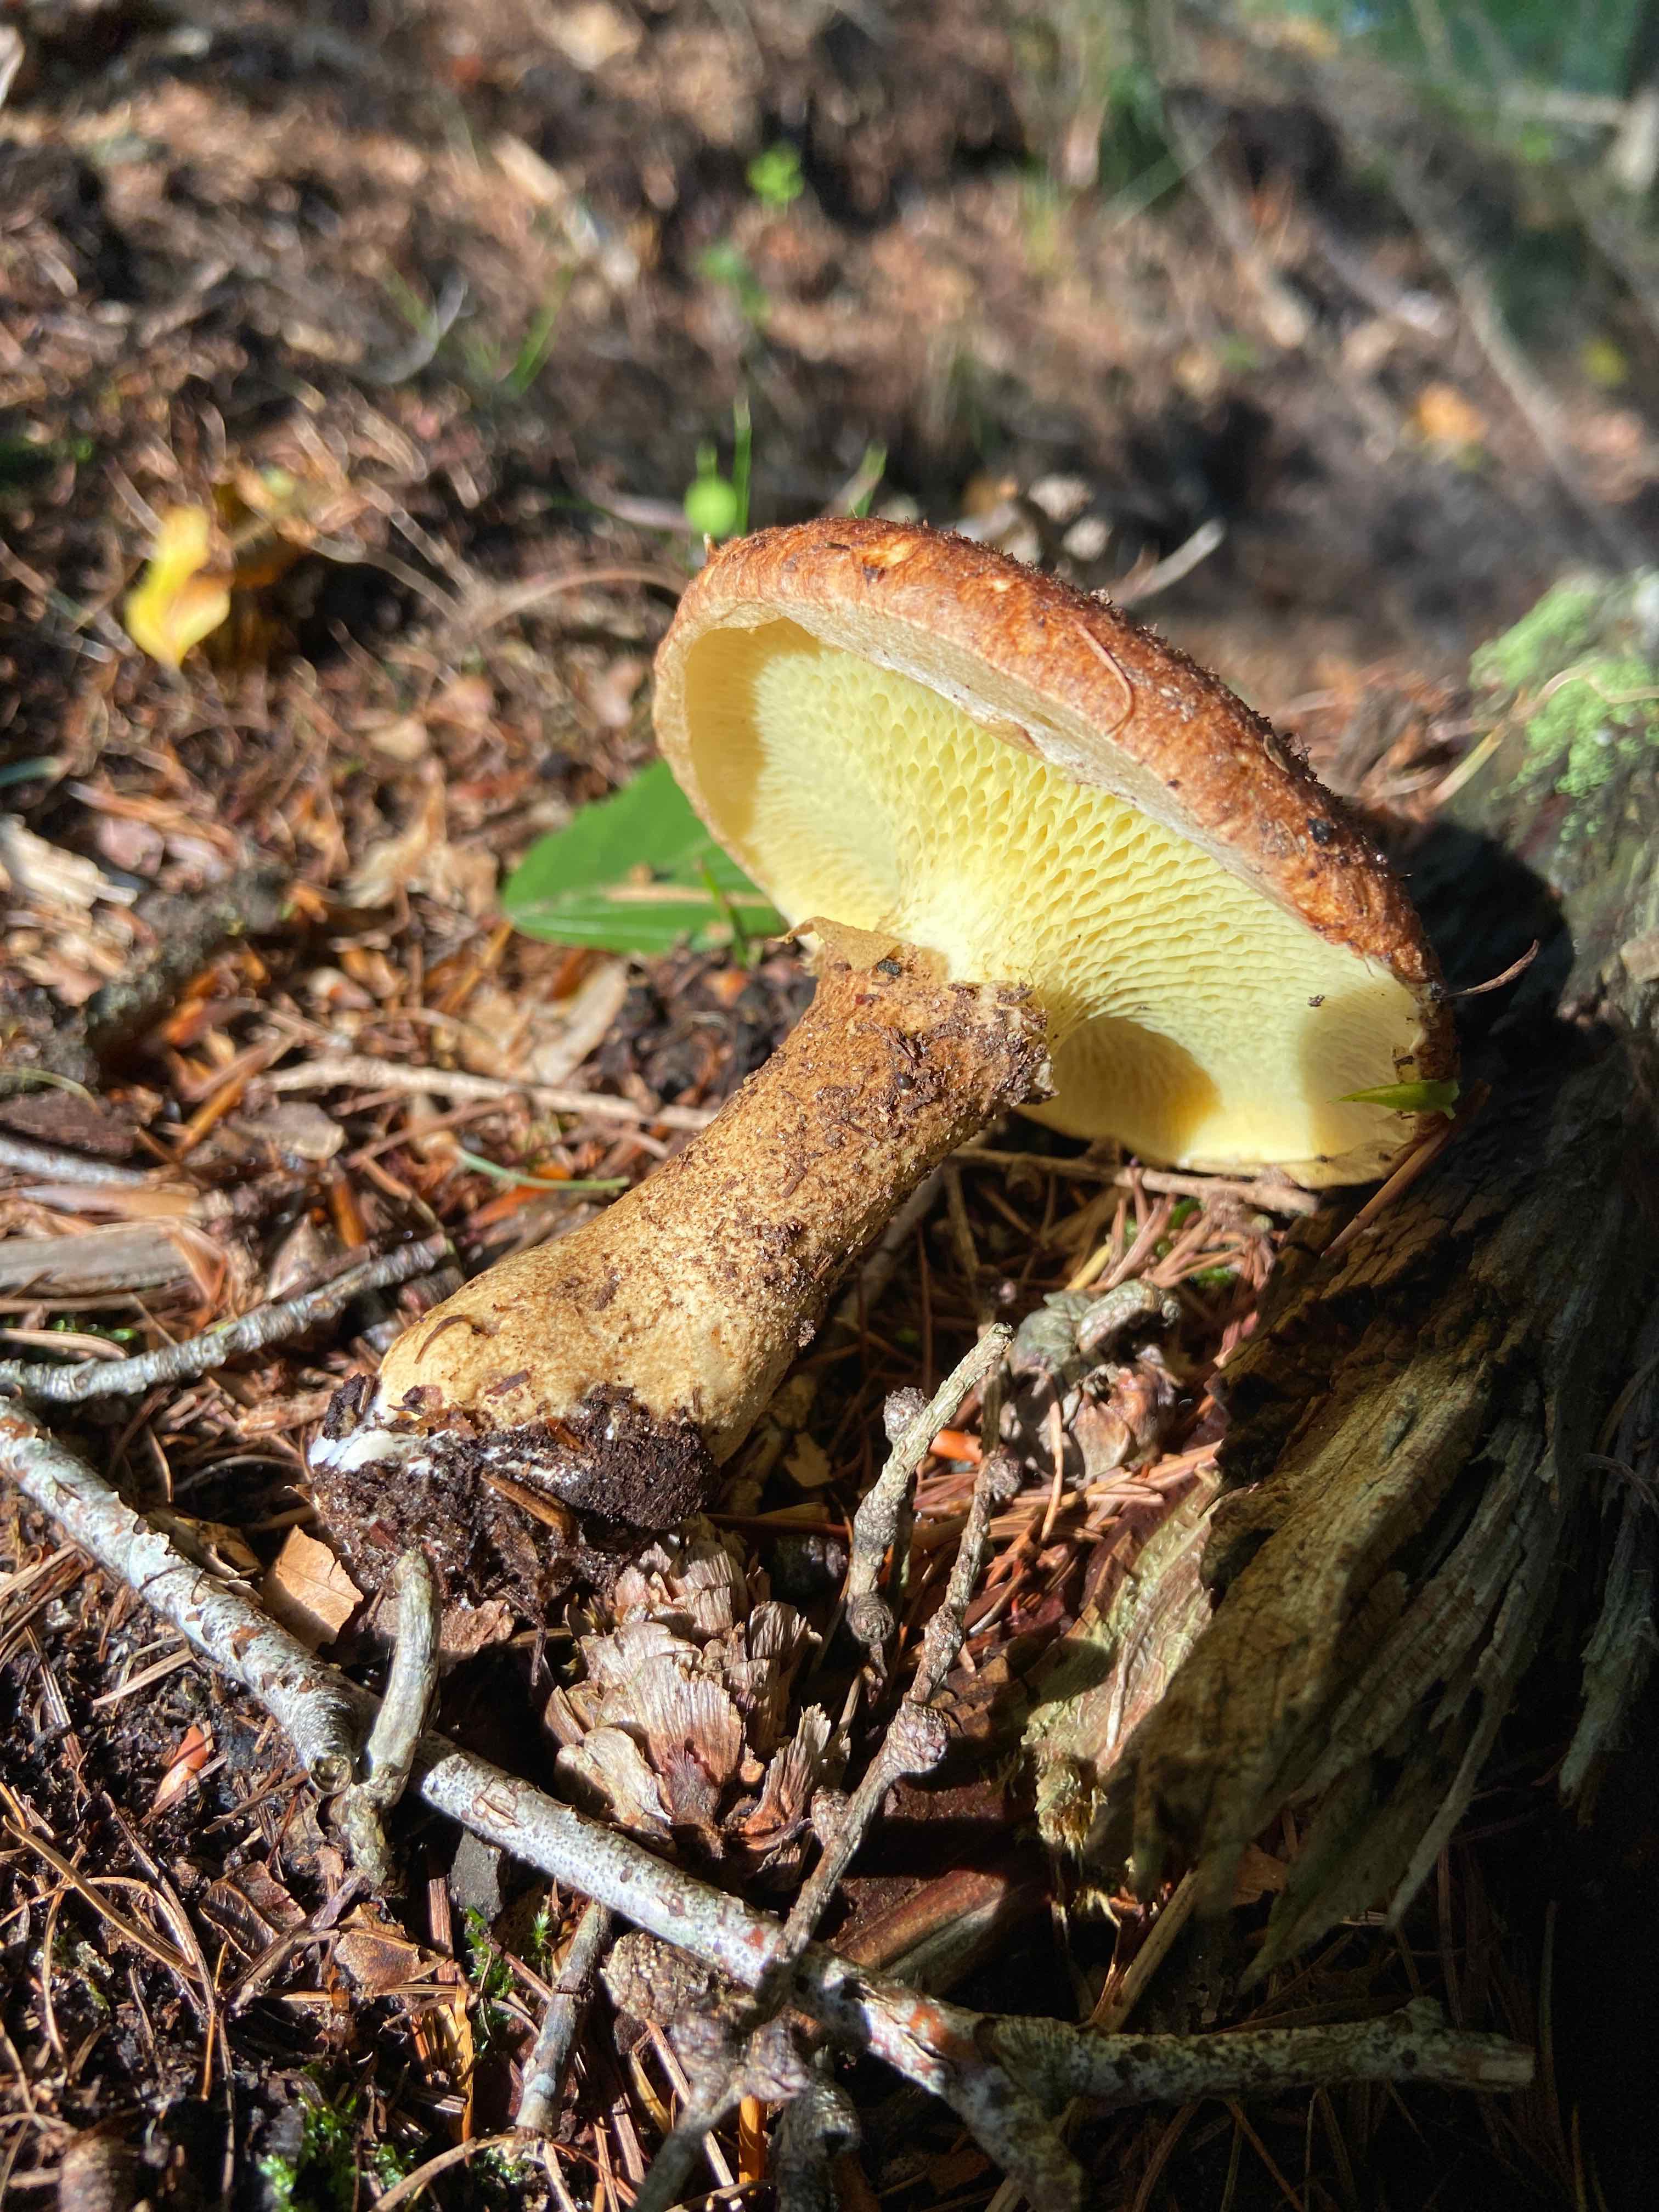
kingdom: Fungi
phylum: Basidiomycota
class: Agaricomycetes
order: Boletales
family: Suillaceae
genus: Suillus
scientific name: Suillus cavipes
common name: hulstokket slimrørhat
